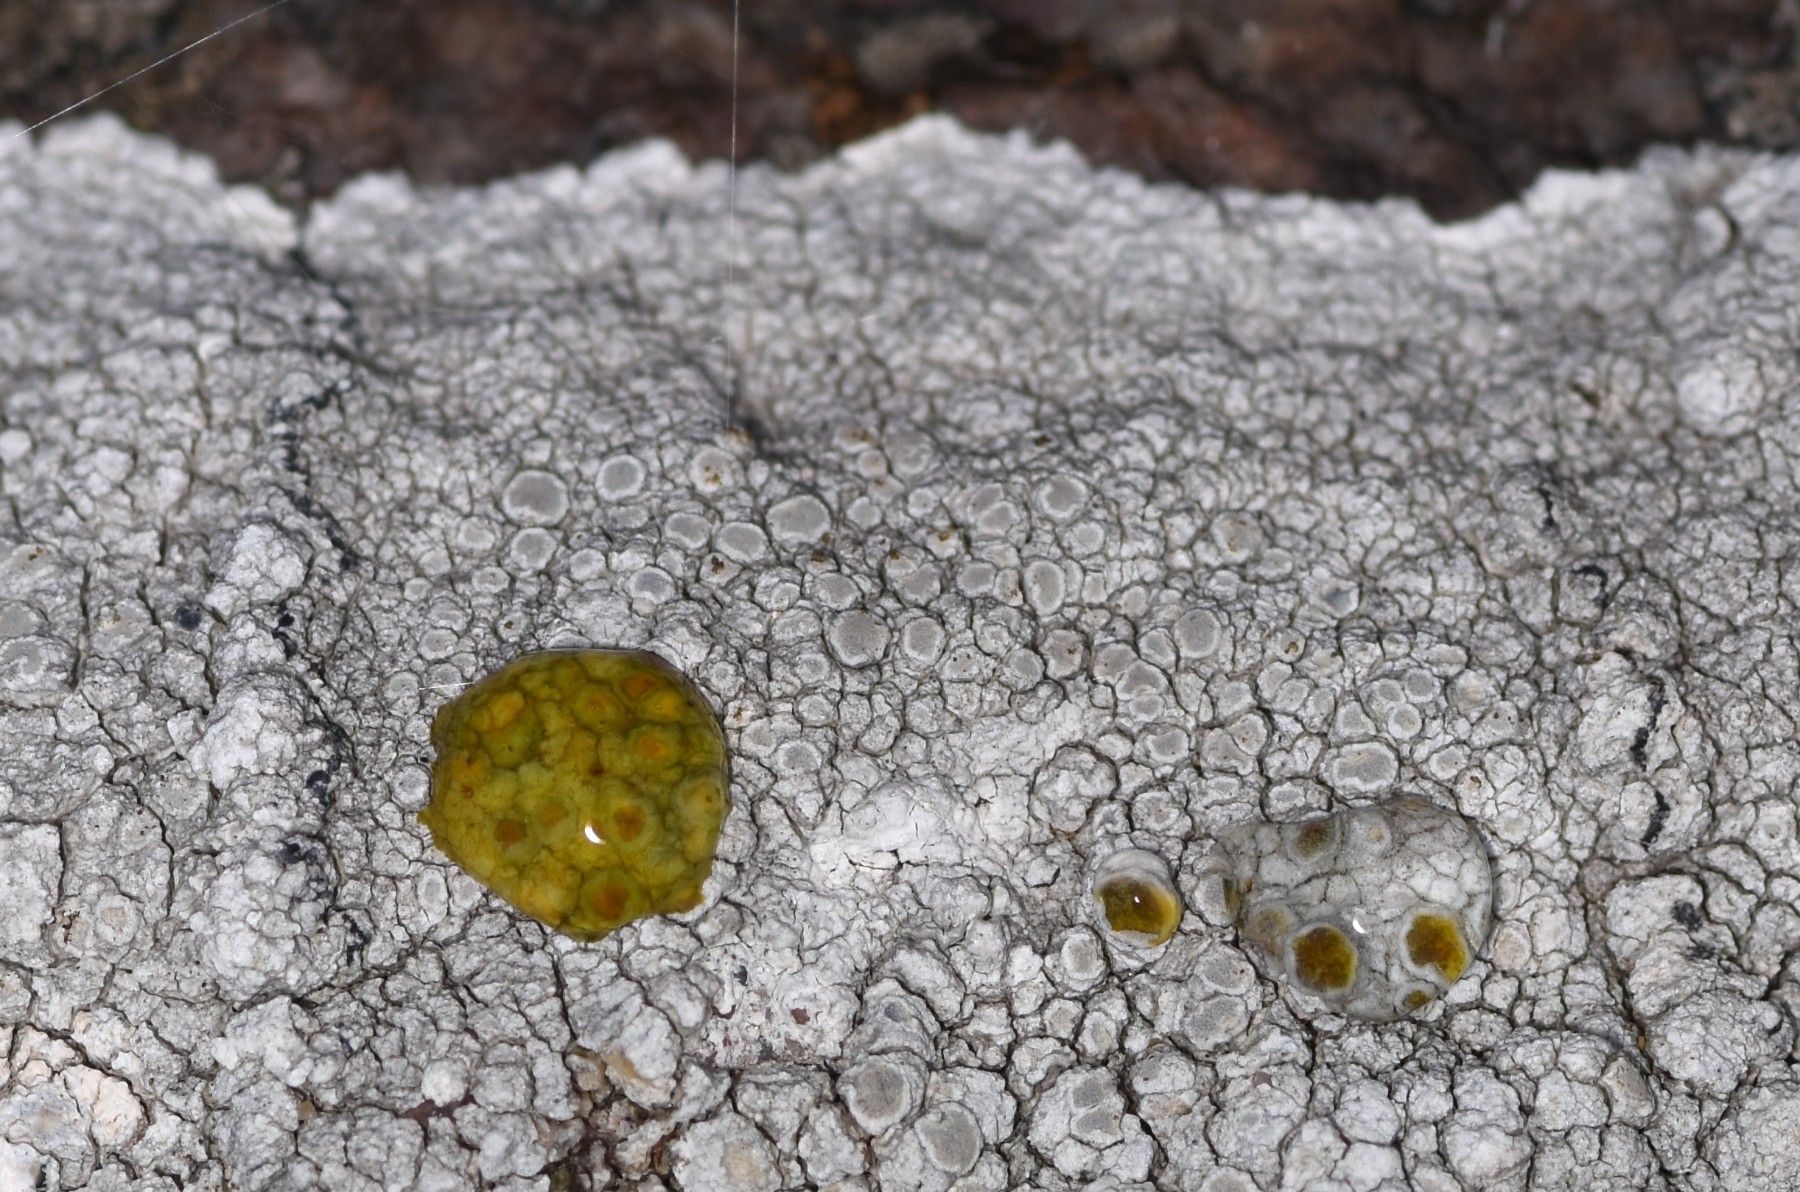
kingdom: Fungi
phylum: Ascomycota
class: Lecanoromycetes
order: Lecanorales
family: Lecanoraceae
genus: Glaucomaria
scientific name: Glaucomaria rupicola
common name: stengærde-kantskivelav
